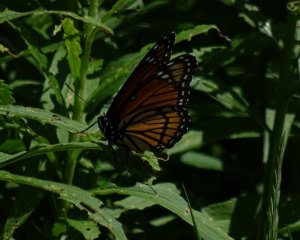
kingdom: Animalia
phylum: Arthropoda
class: Insecta
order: Lepidoptera
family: Nymphalidae
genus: Limenitis
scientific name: Limenitis archippus
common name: Viceroy
